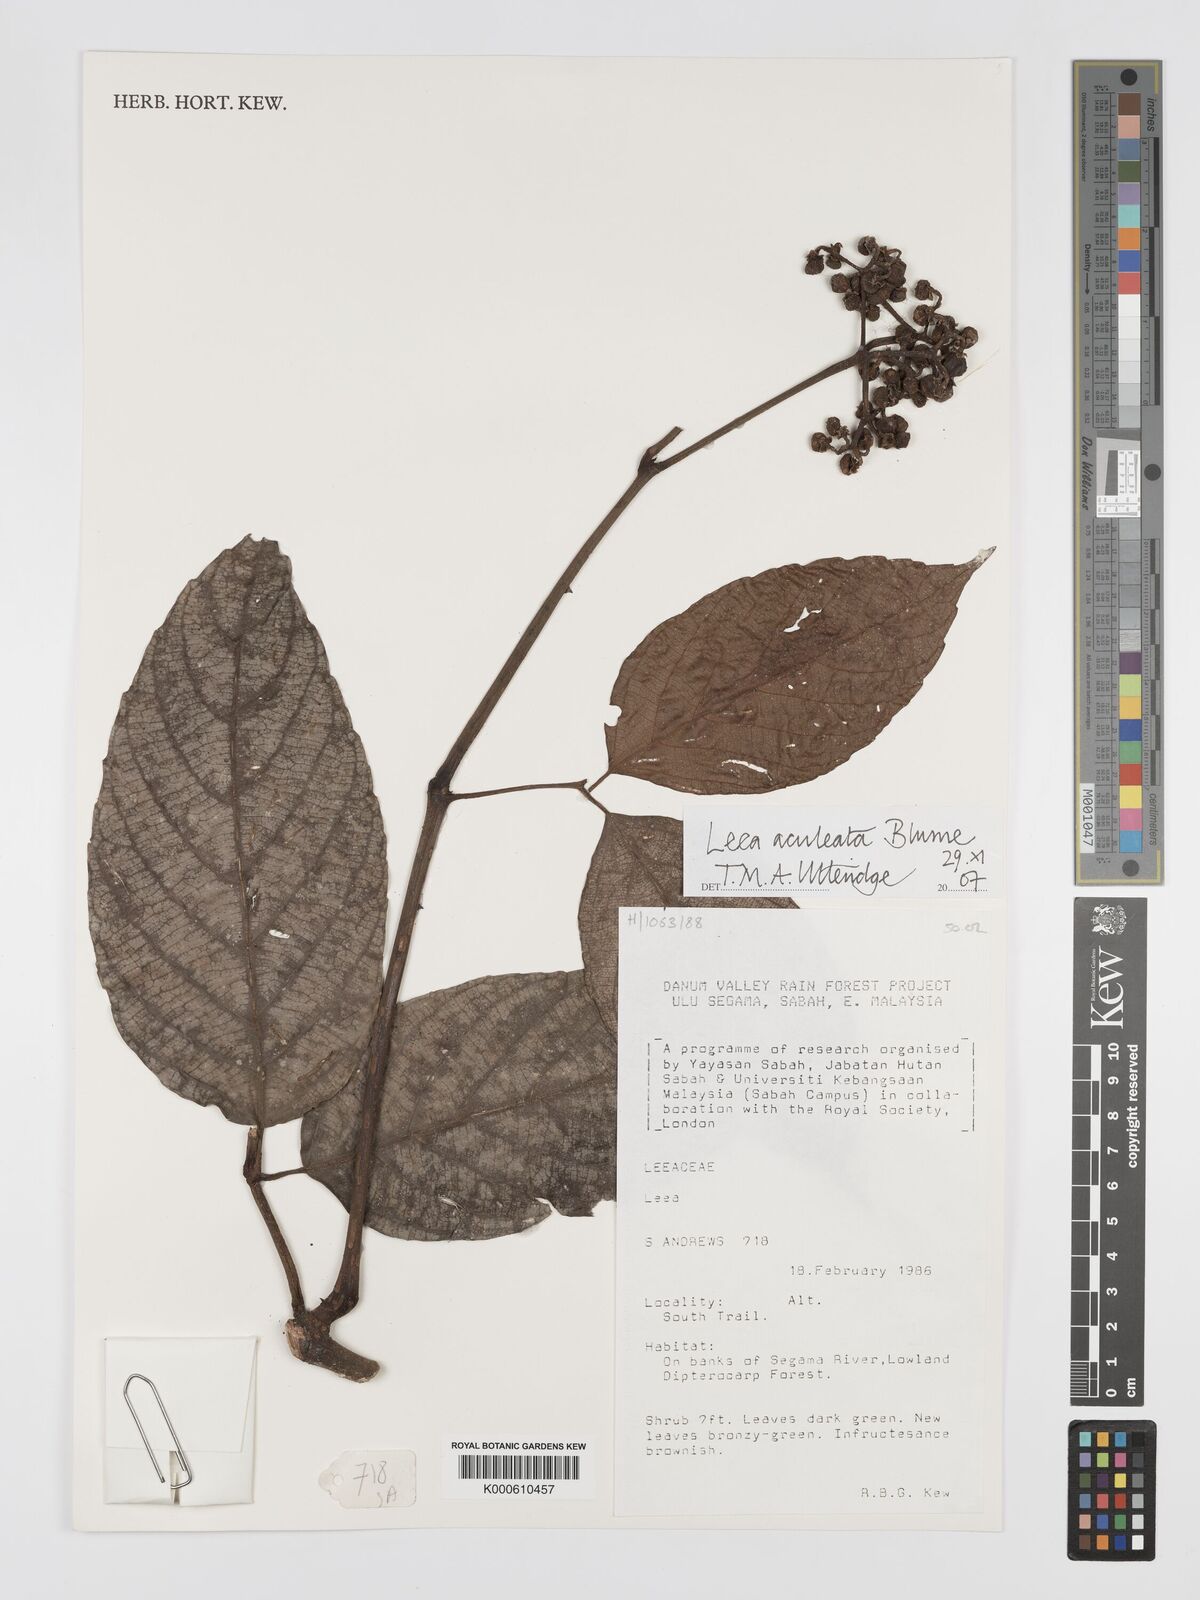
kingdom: Plantae
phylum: Tracheophyta
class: Magnoliopsida
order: Vitales
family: Vitaceae
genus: Leea
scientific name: Leea aculeata
